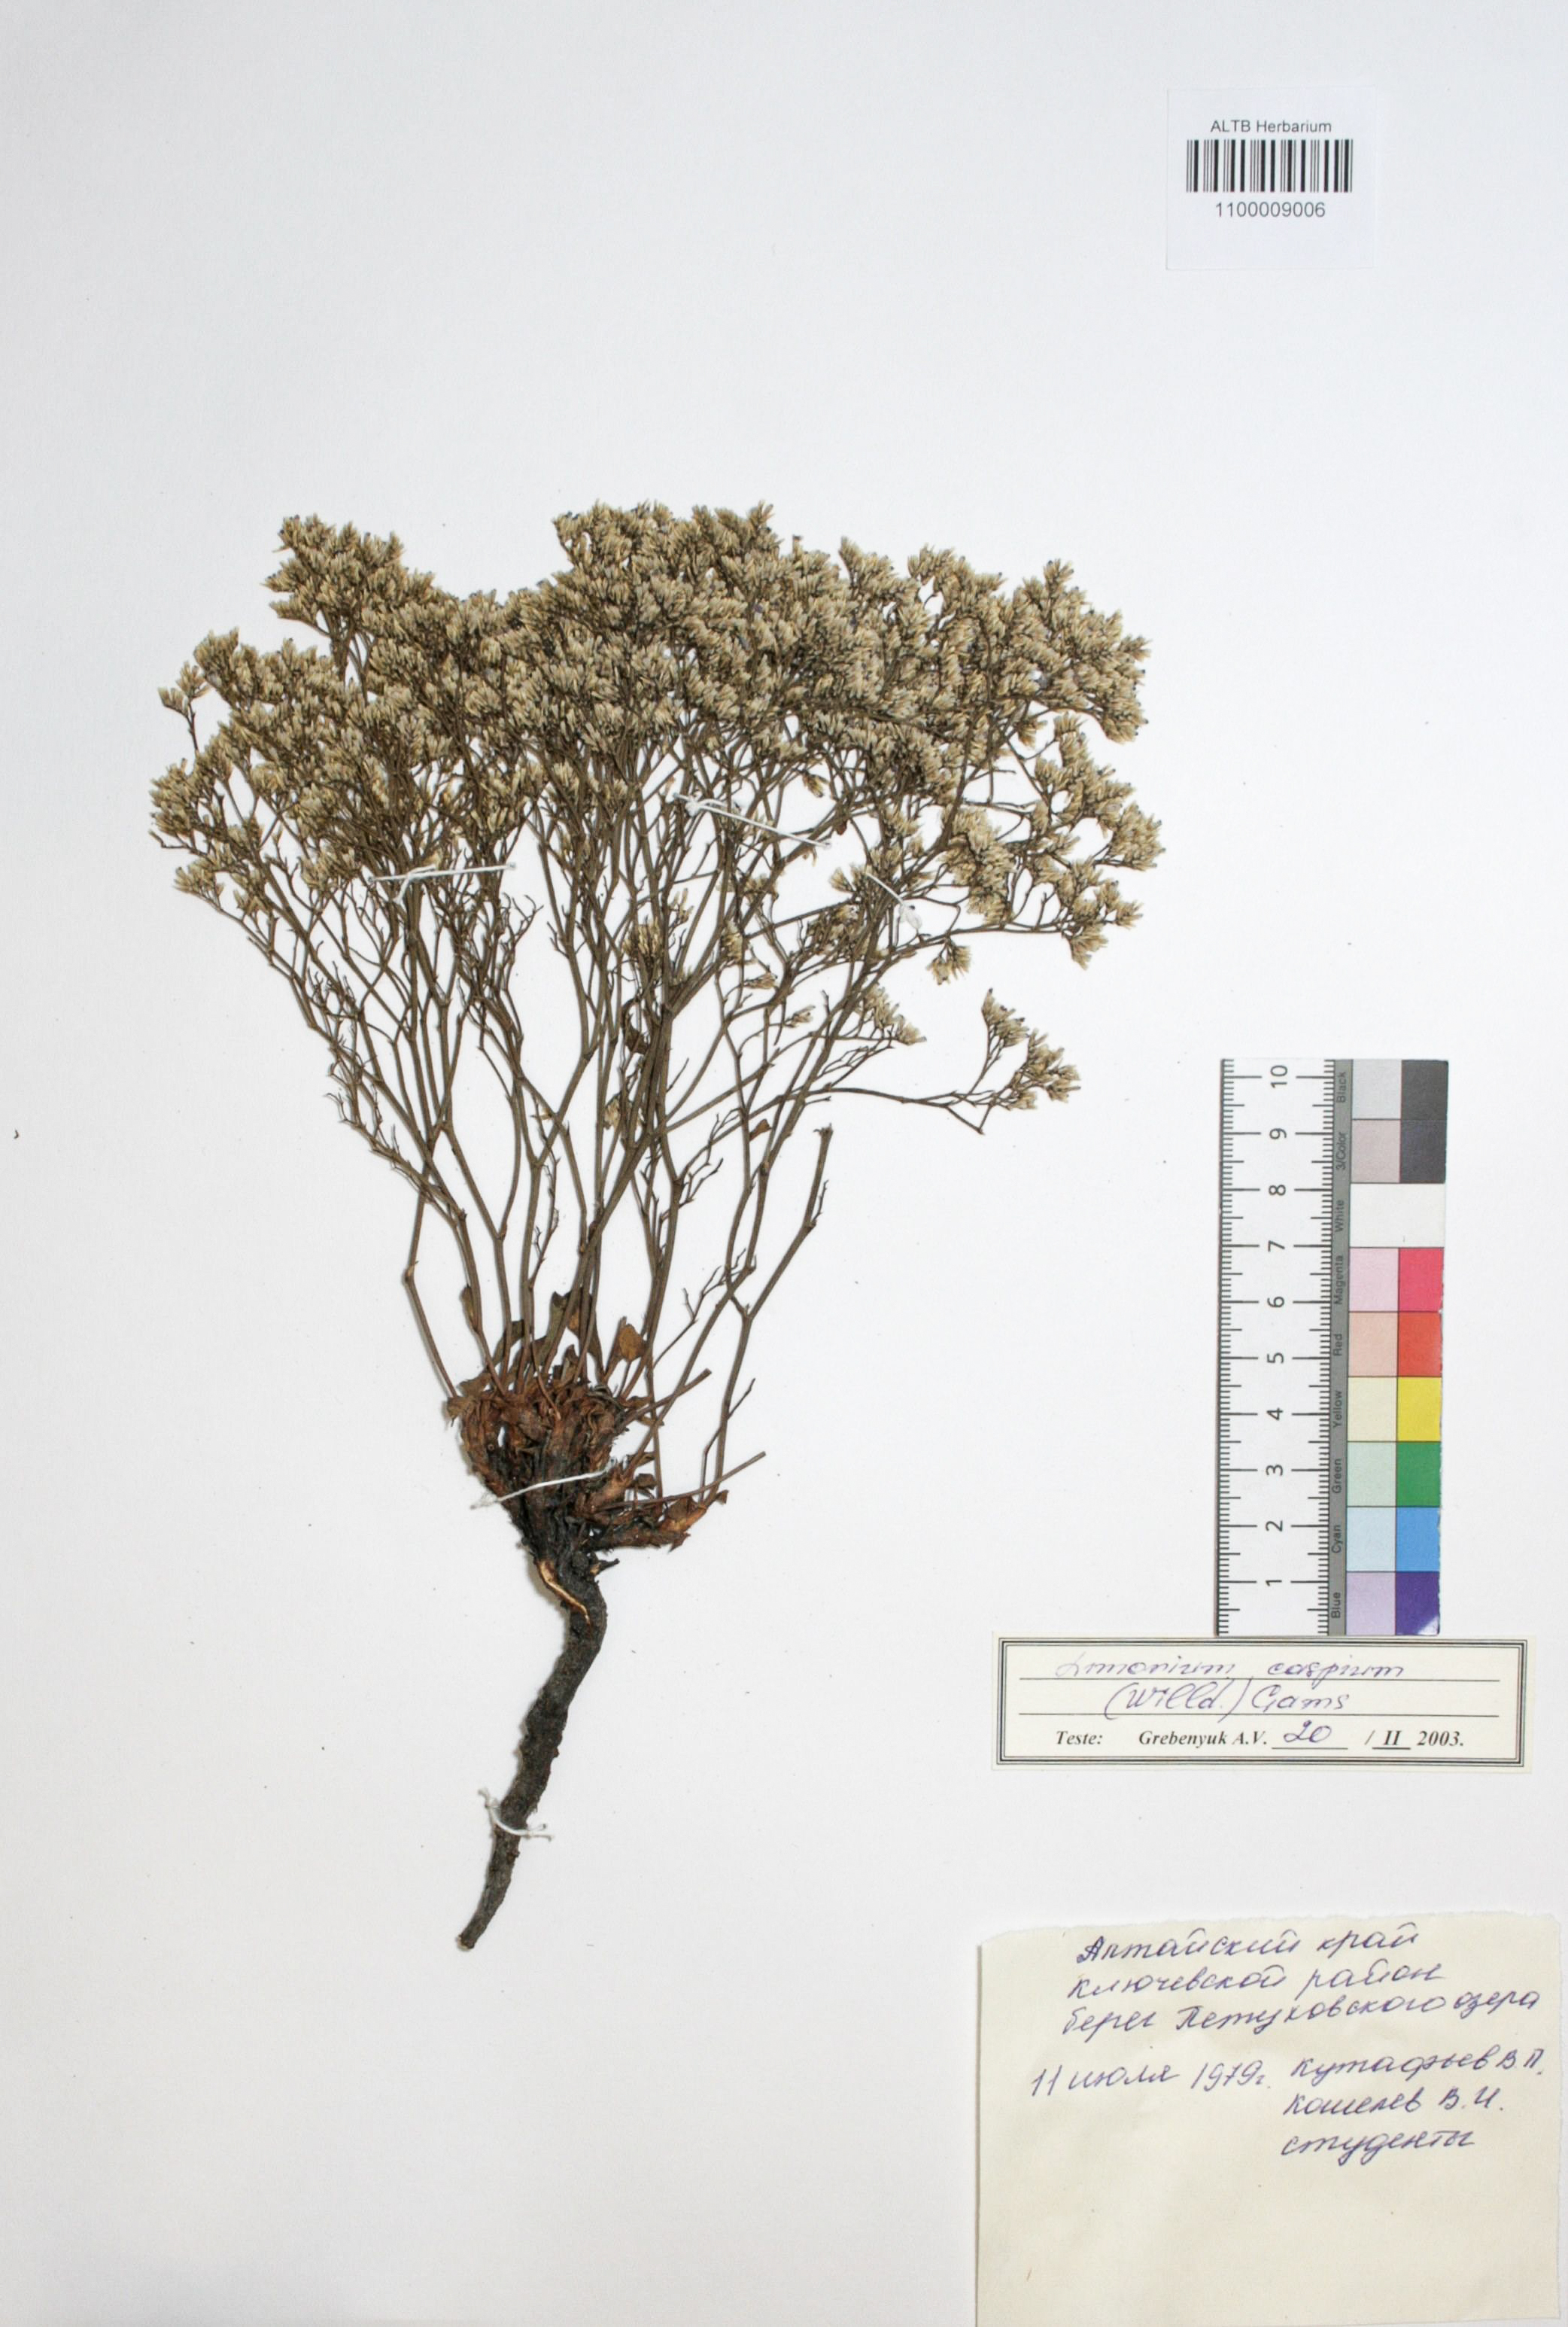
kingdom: Plantae
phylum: Tracheophyta
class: Magnoliopsida
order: Caryophyllales
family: Plumbaginaceae
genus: Limonium
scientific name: Limonium bellidifolium
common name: Matted sea-lavender
